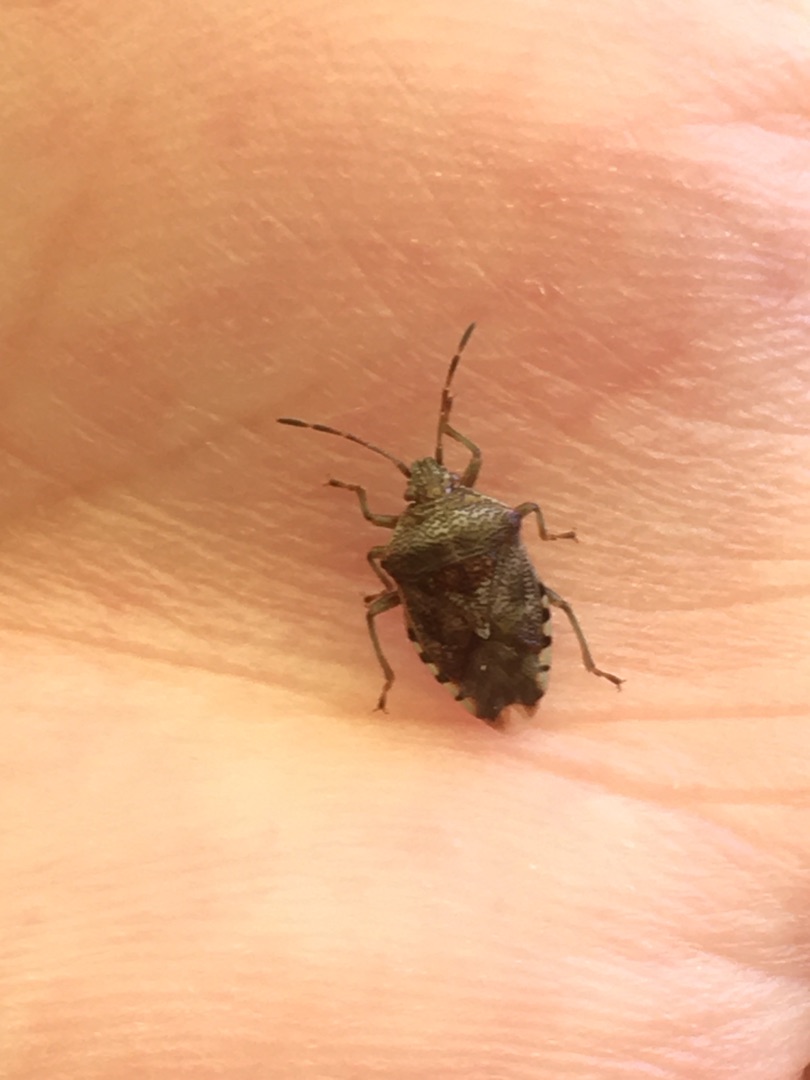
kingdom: Animalia
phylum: Arthropoda
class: Insecta
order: Hemiptera
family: Acanthosomatidae
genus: Elasmucha
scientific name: Elasmucha grisea
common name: Almindelig birketæge
